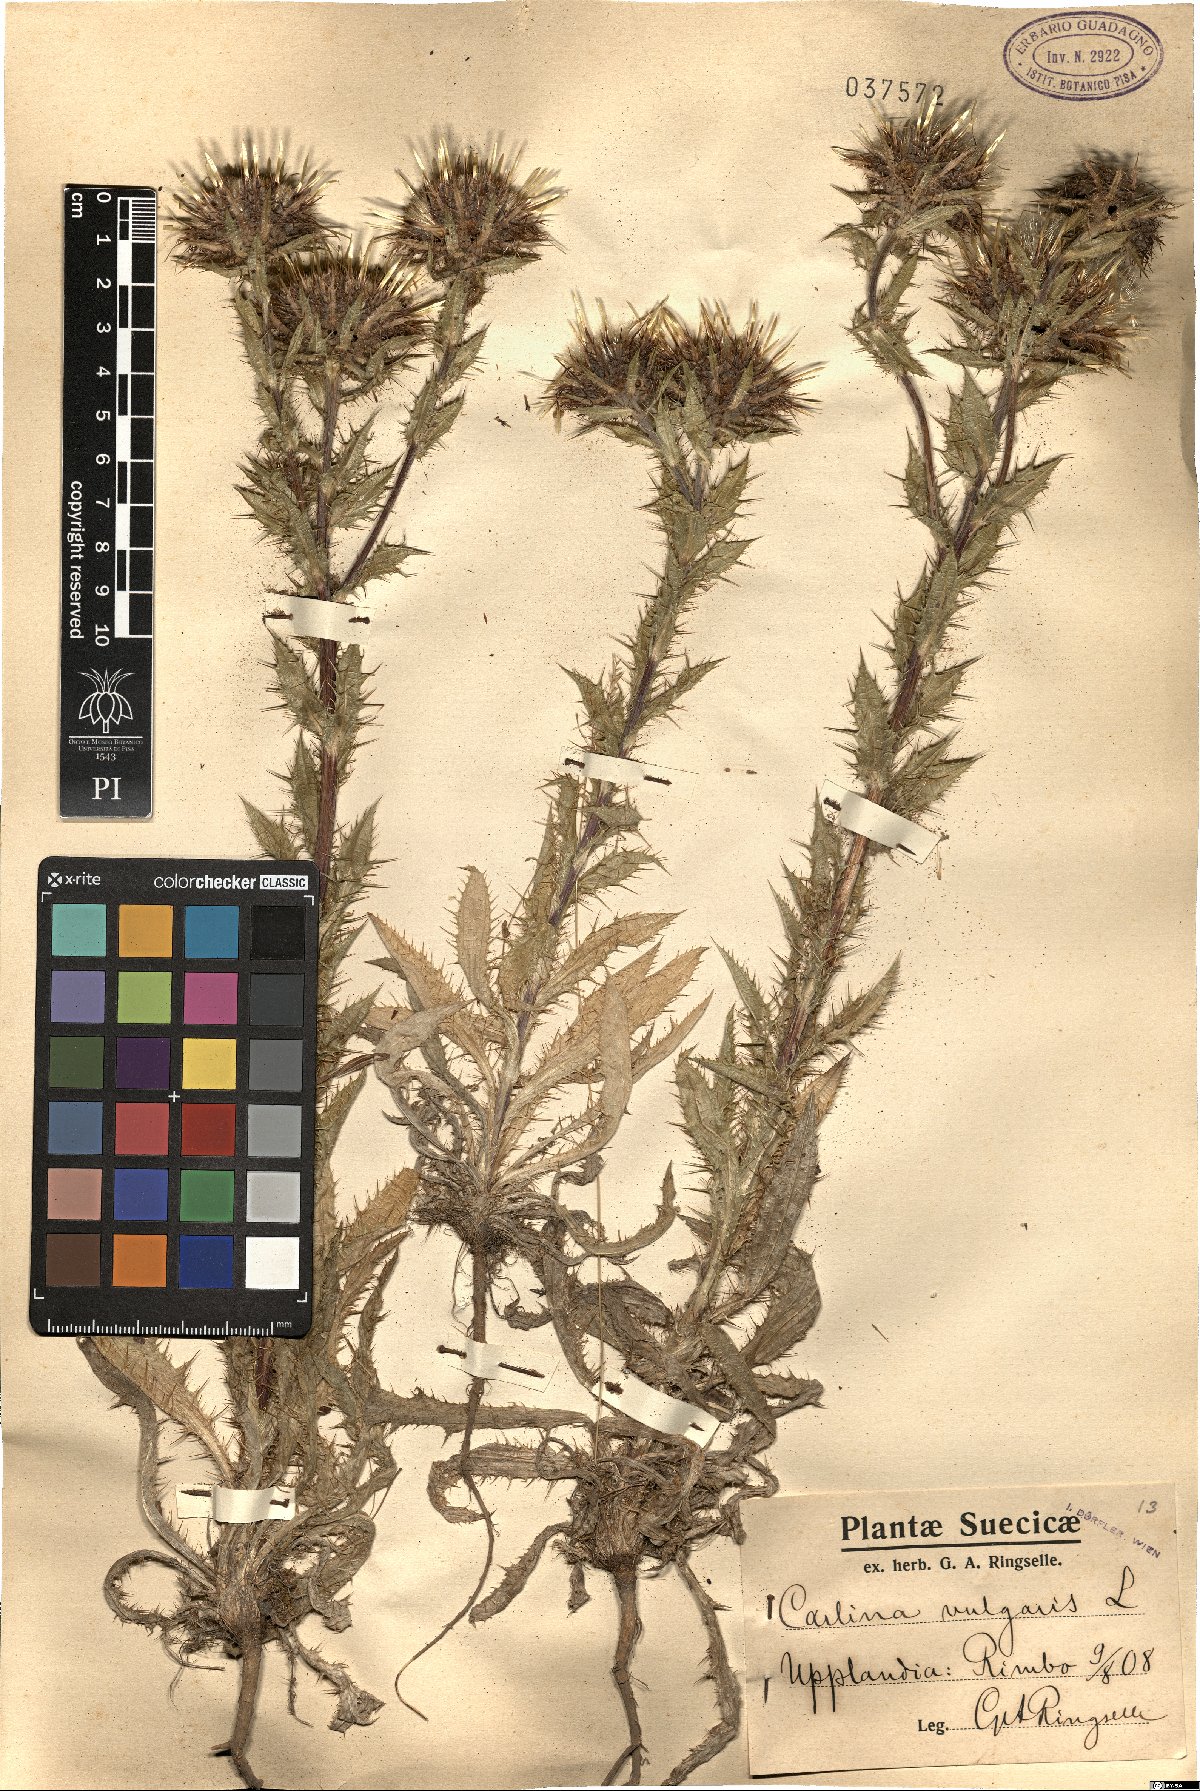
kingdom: Plantae
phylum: Tracheophyta
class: Magnoliopsida
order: Asterales
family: Asteraceae
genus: Carlina
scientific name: Carlina vulgaris
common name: Carline thistle
